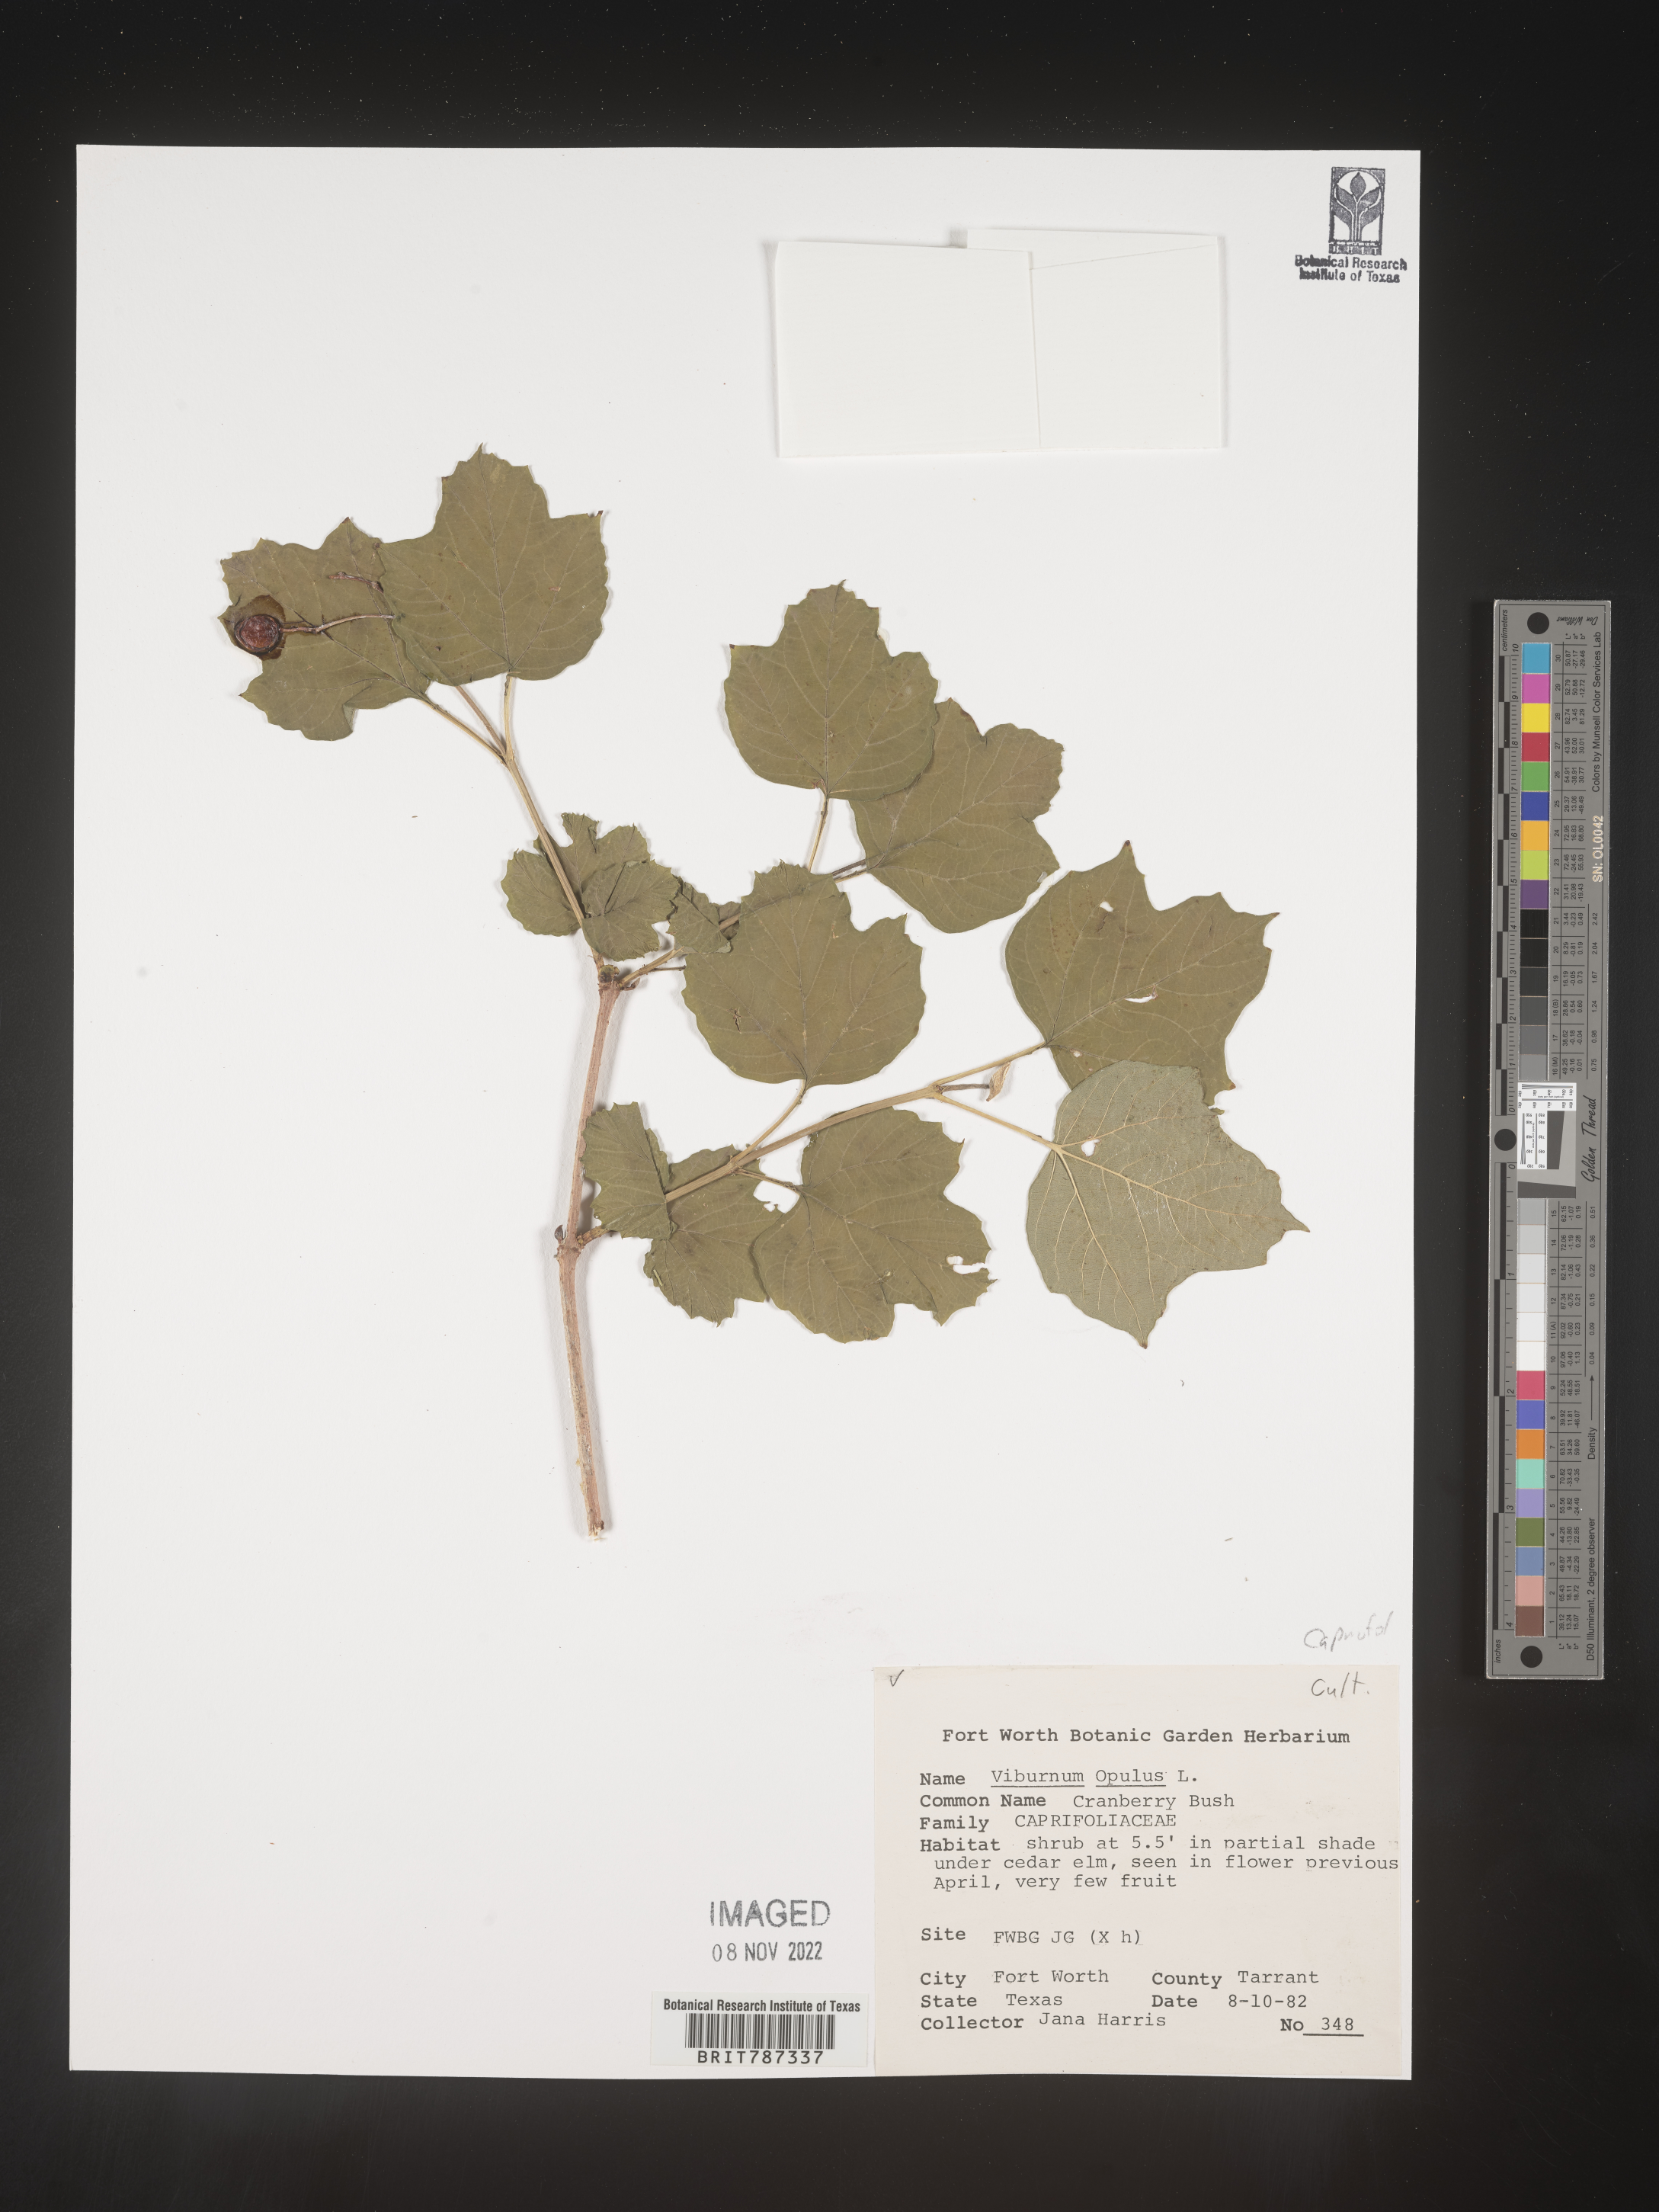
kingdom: Plantae
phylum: Tracheophyta
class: Magnoliopsida
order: Dipsacales
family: Viburnaceae
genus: Viburnum
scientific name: Viburnum
